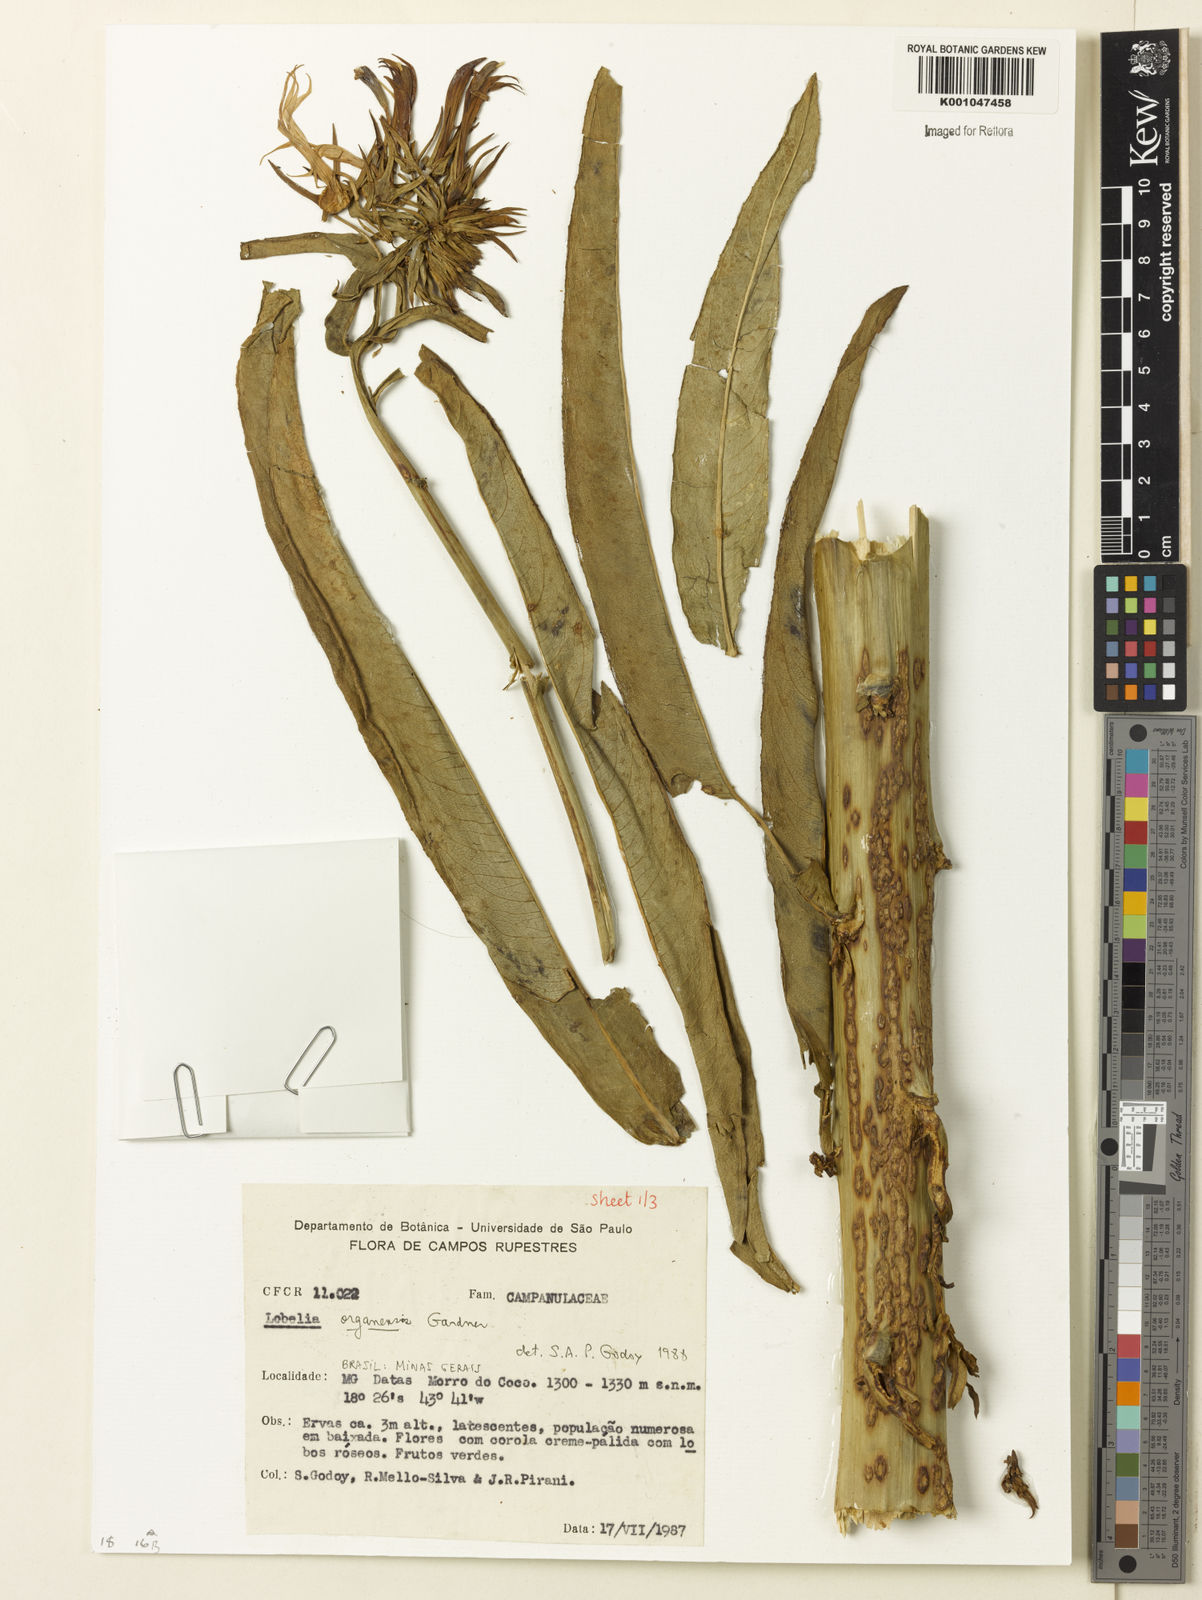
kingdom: Plantae
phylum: Tracheophyta
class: Magnoliopsida
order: Asterales
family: Campanulaceae
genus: Lobelia
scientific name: Lobelia organensis
